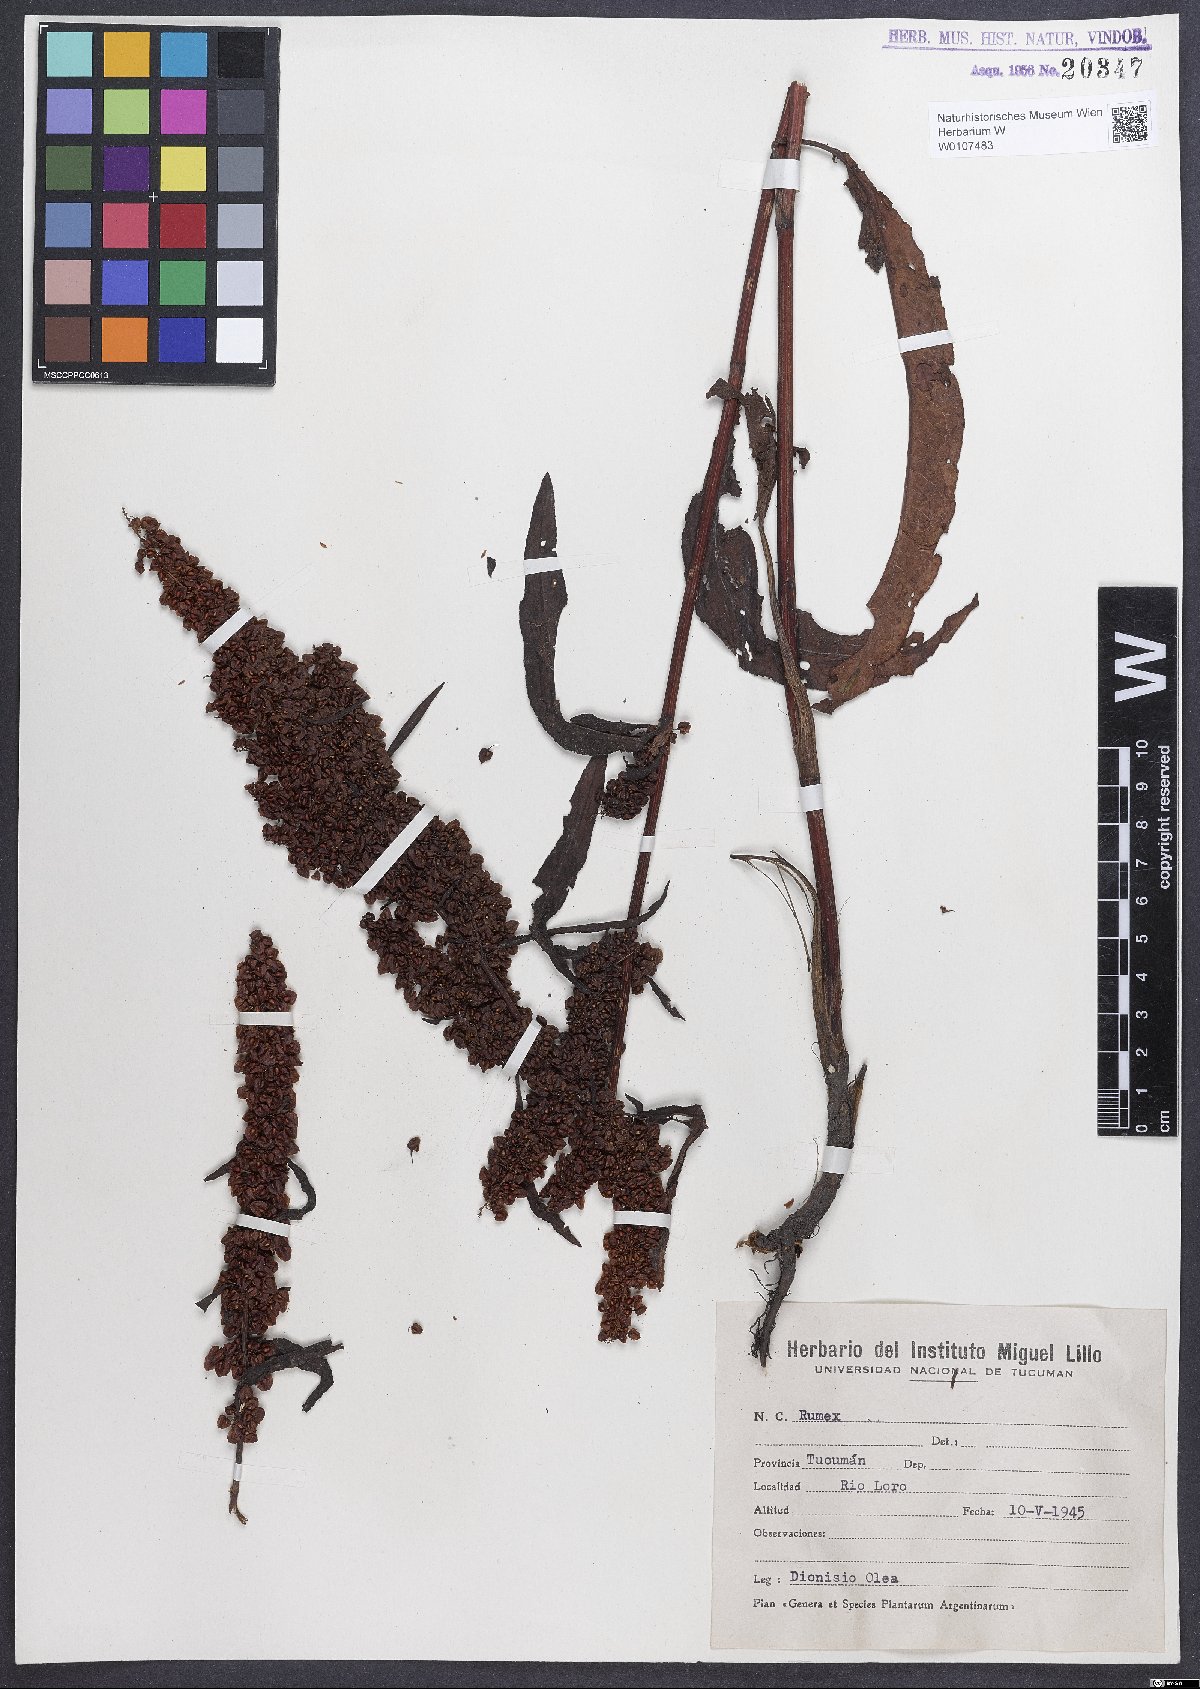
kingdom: Plantae
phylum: Tracheophyta
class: Magnoliopsida
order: Caryophyllales
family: Polygonaceae
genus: Rumex
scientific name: Rumex crispus
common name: Curled dock
